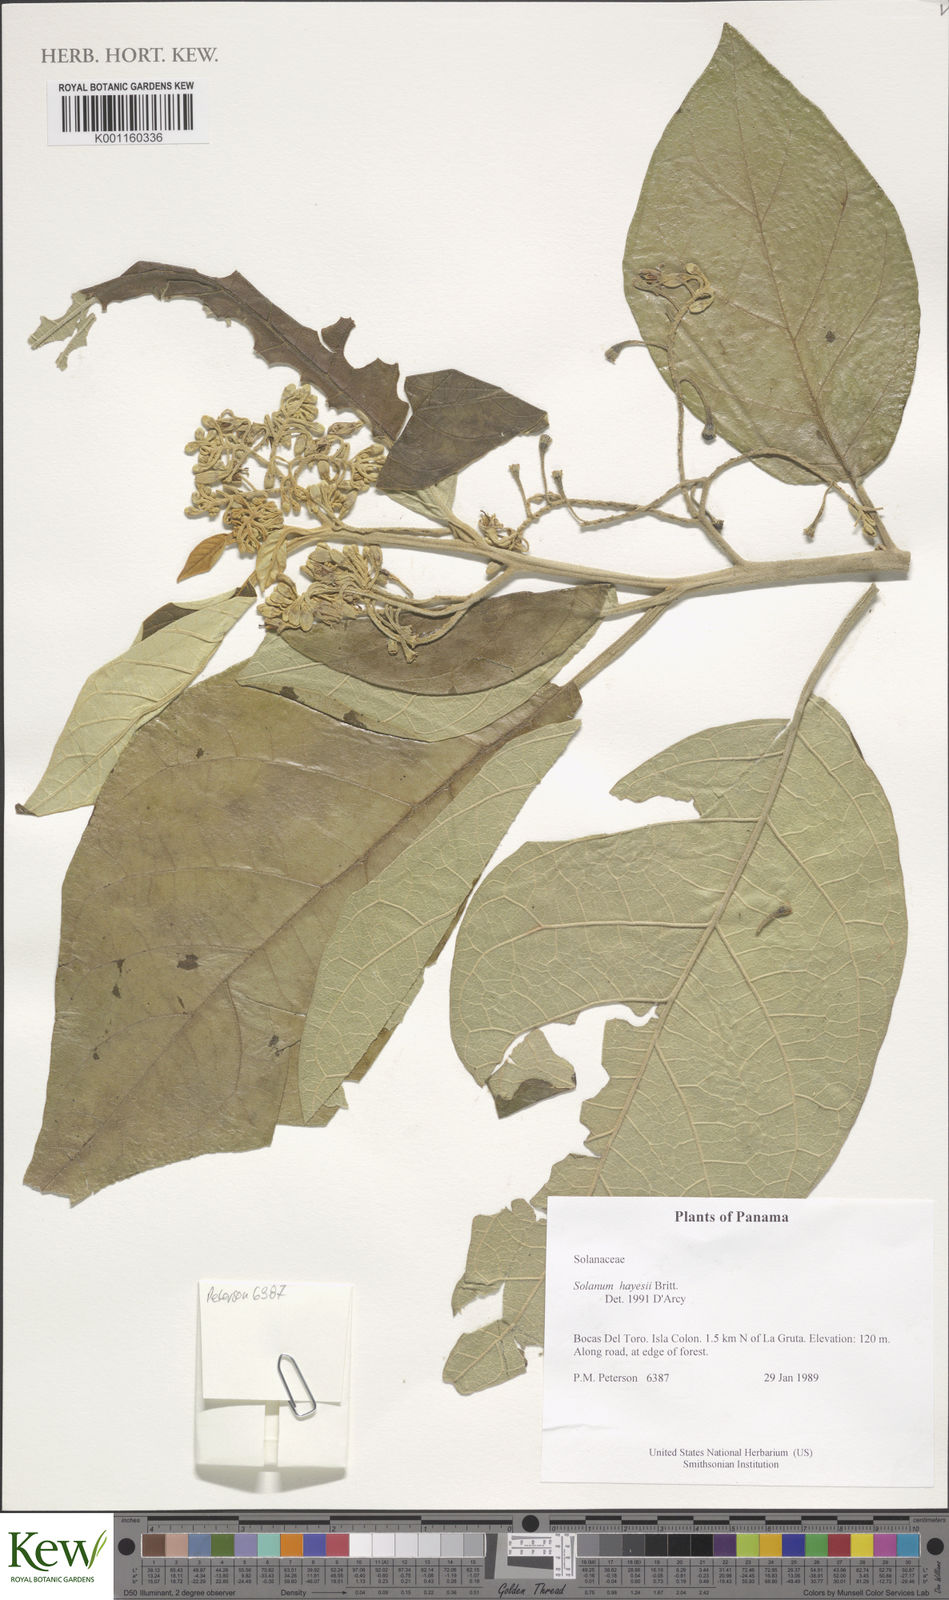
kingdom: Plantae
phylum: Tracheophyta
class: Magnoliopsida
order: Solanales
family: Solanaceae
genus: Solanum
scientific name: Solanum hayesii
